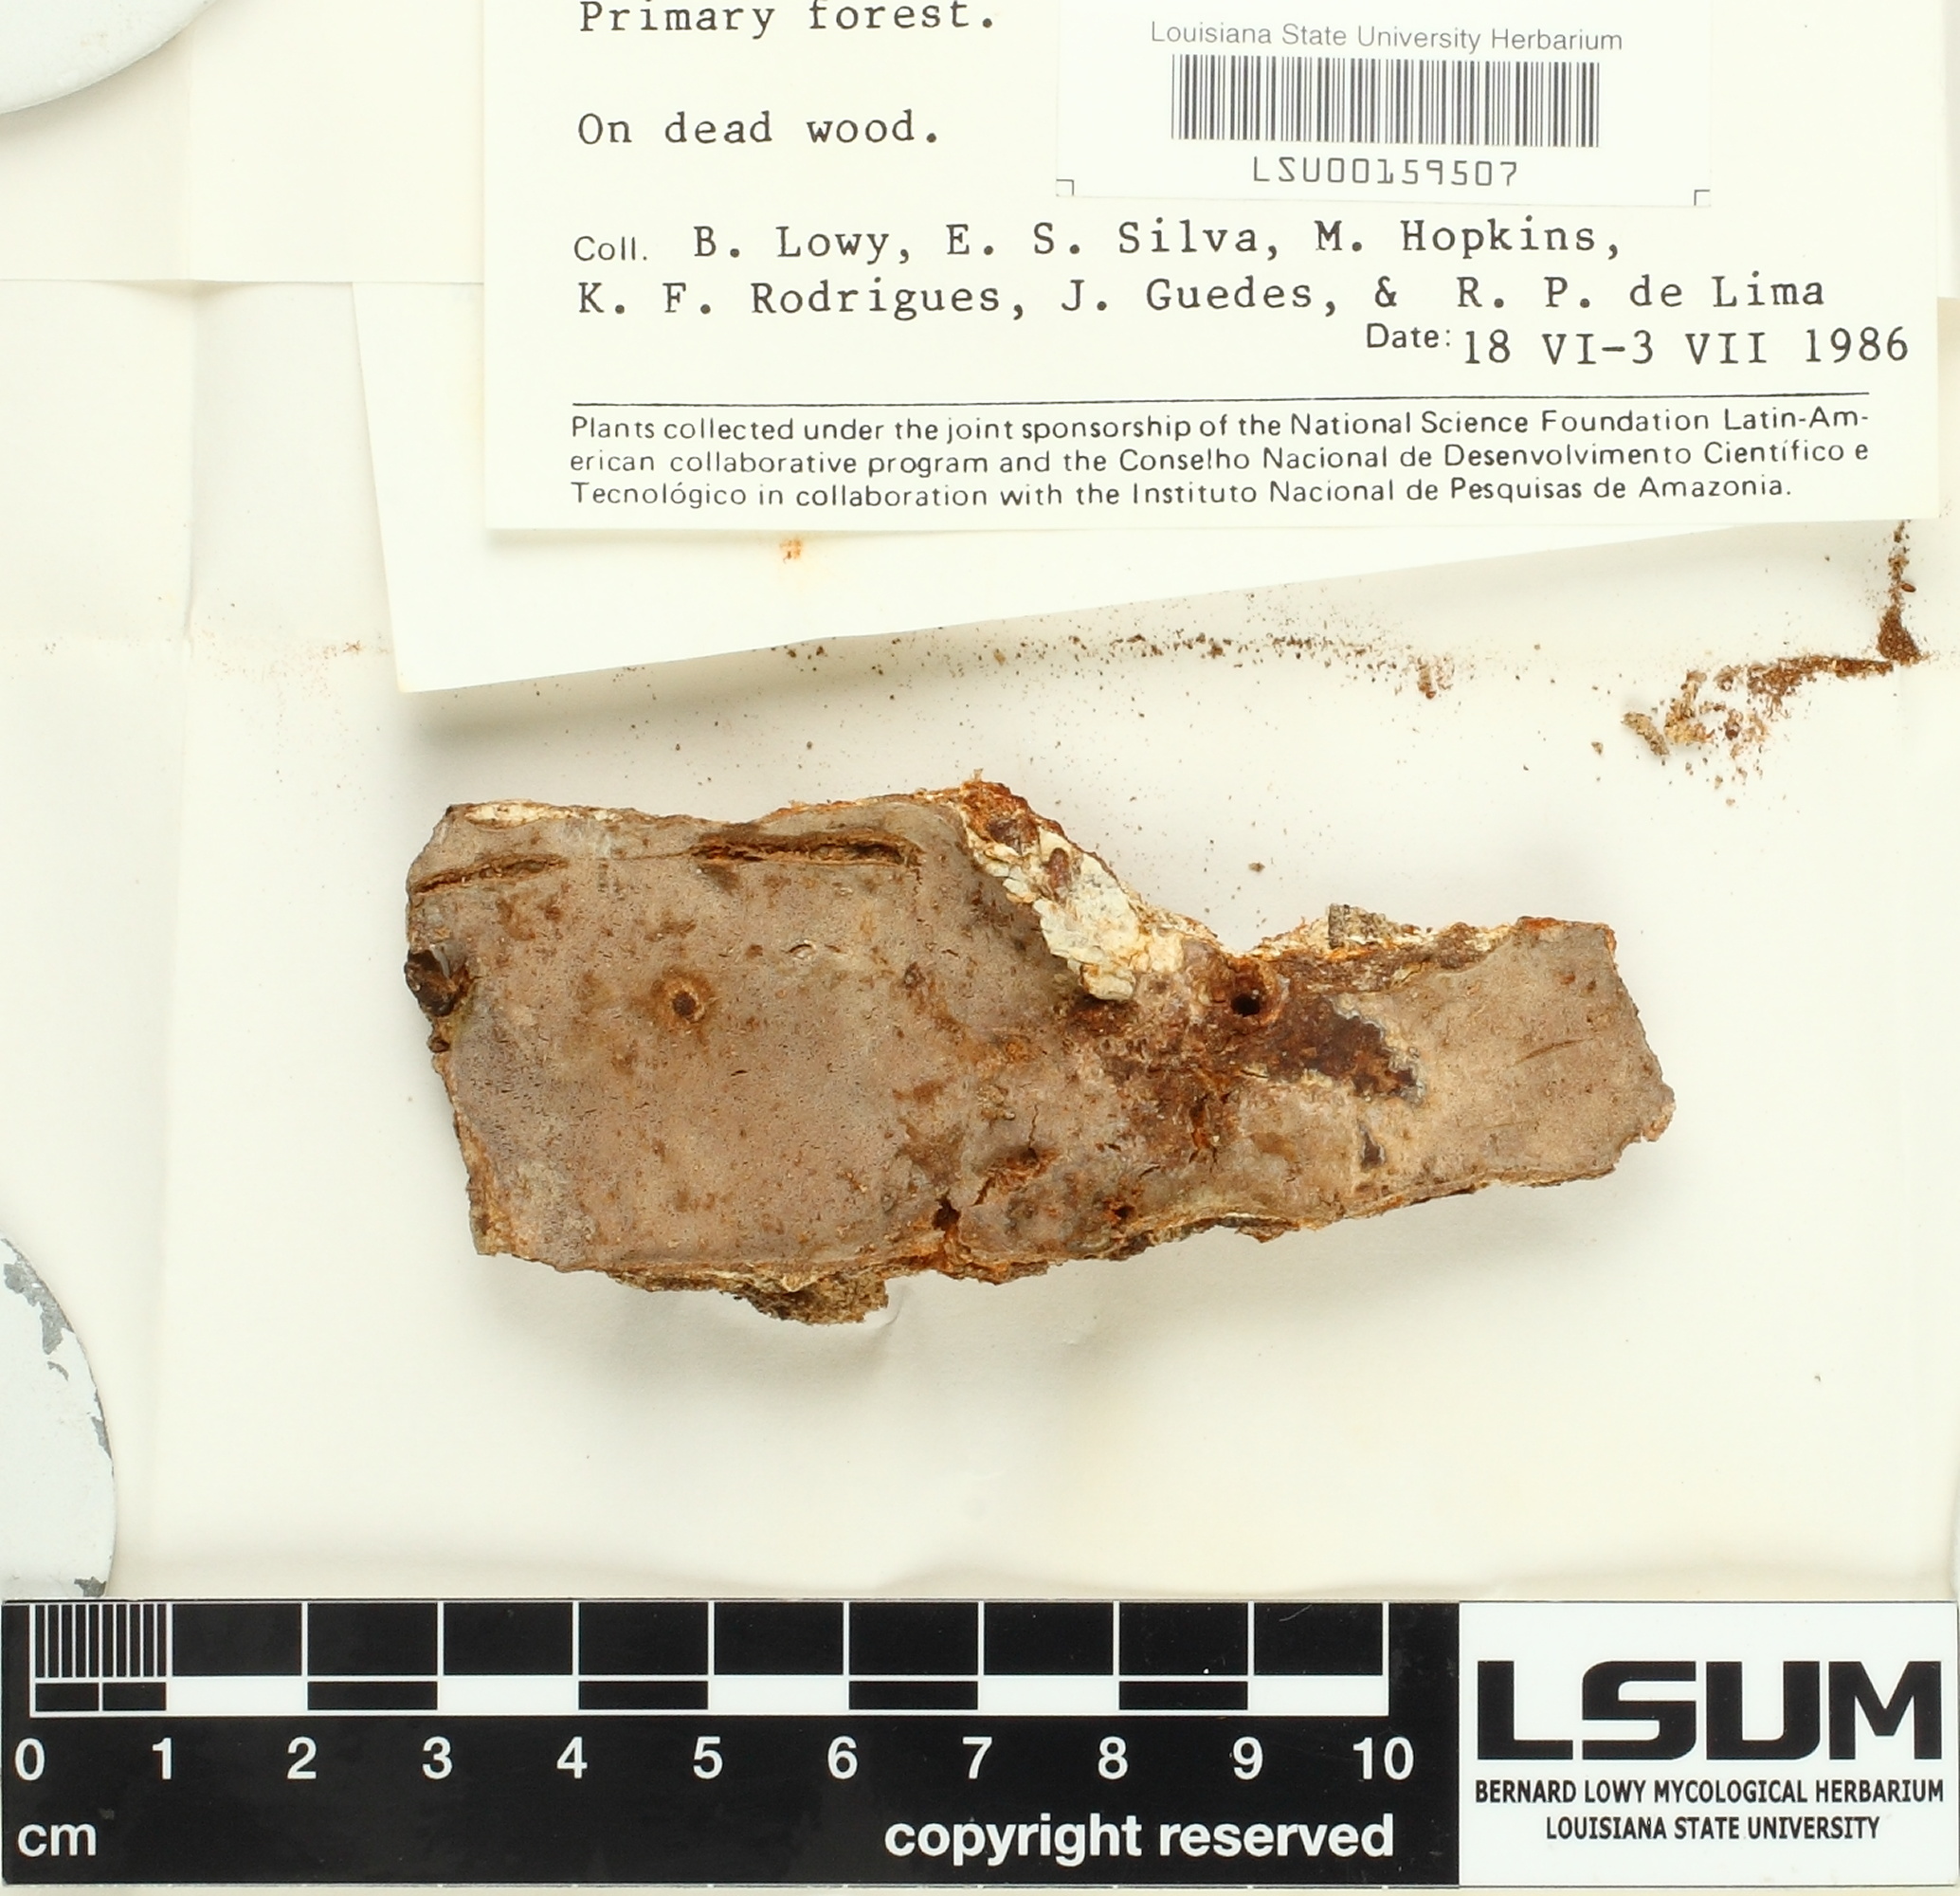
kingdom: Fungi
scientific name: Fungi
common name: Fungi
